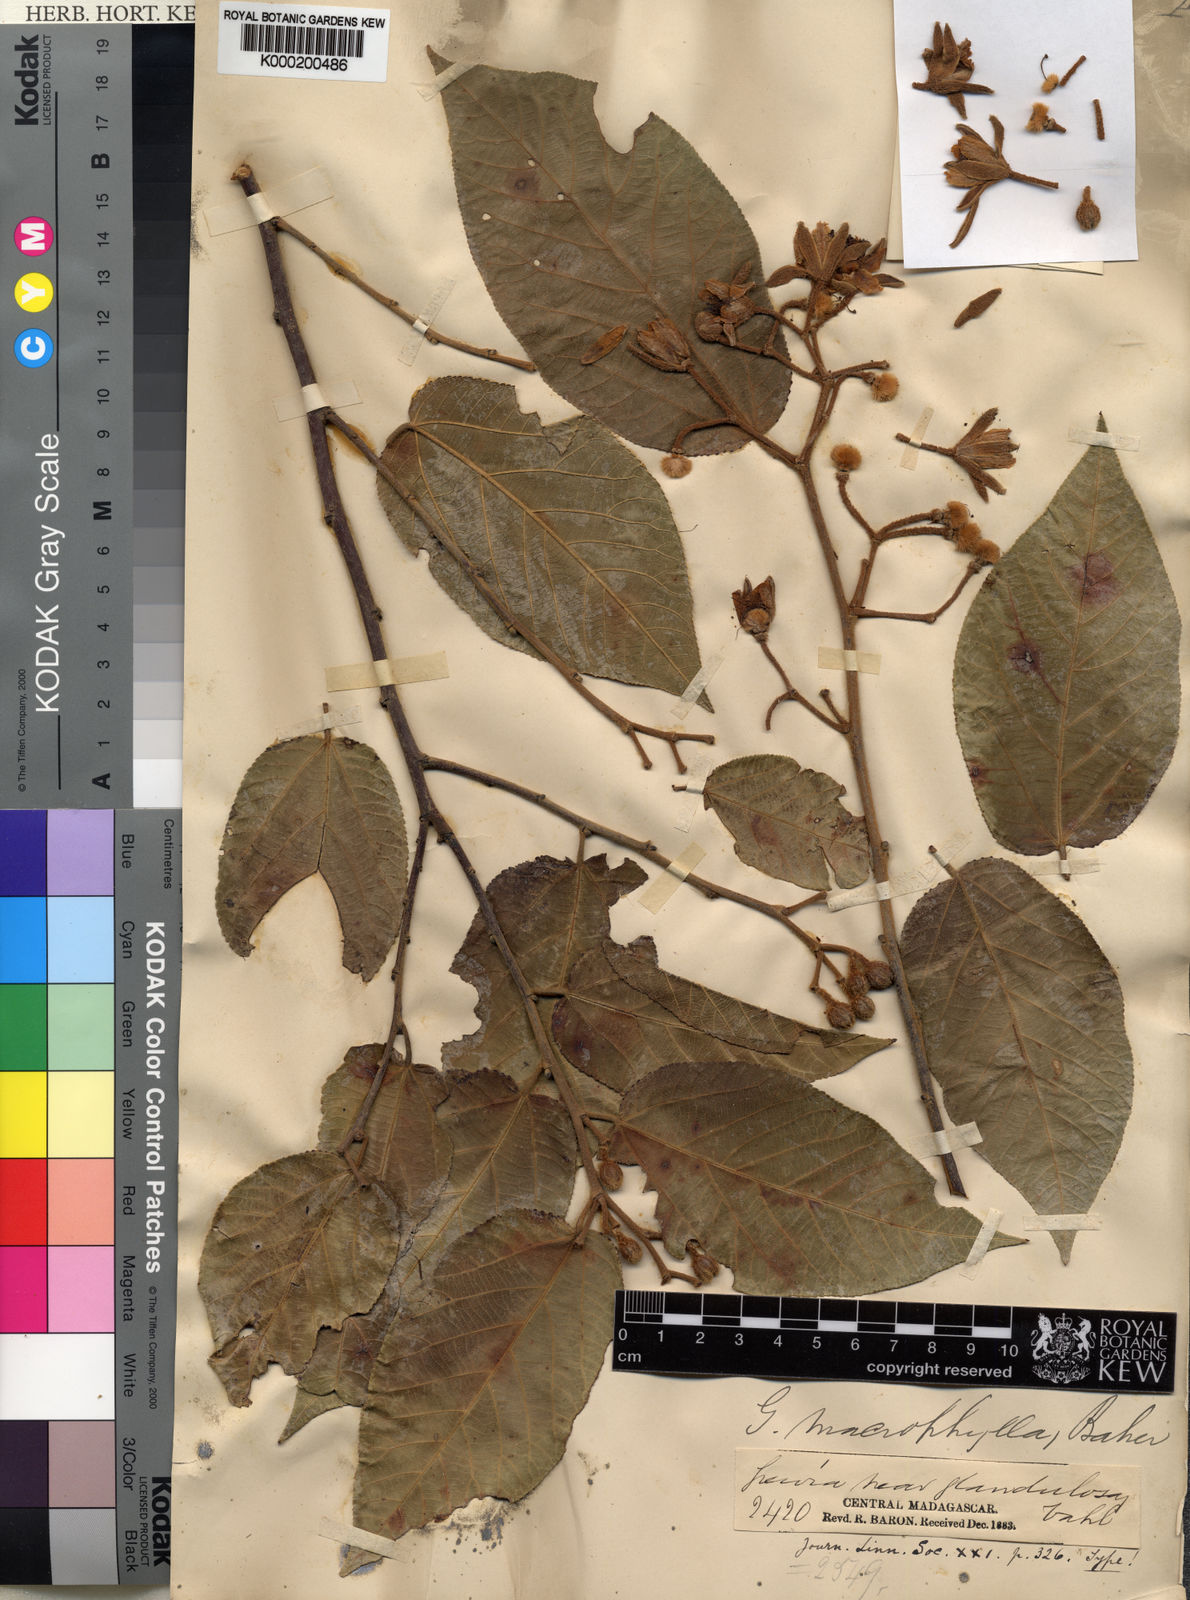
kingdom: Plantae
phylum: Tracheophyta
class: Magnoliopsida
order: Malvales
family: Malvaceae
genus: Grewia
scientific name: Grewia speciosa
